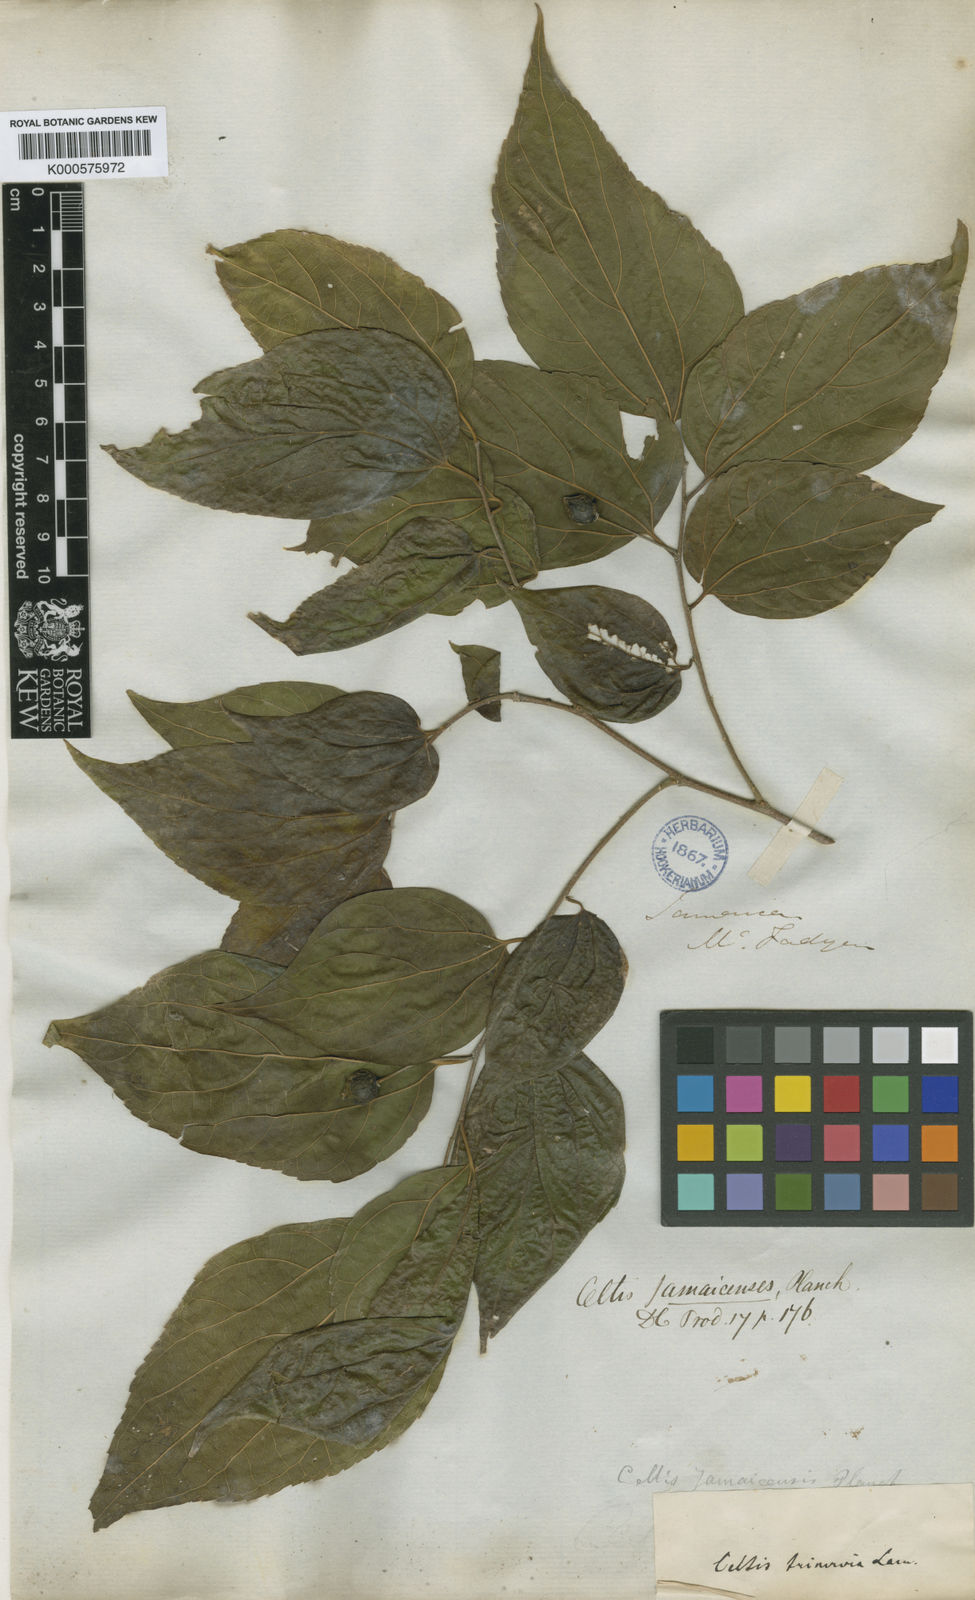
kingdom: Plantae
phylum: Tracheophyta
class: Magnoliopsida
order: Rosales
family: Cannabaceae
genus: Celtis
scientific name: Celtis jamaicensis
